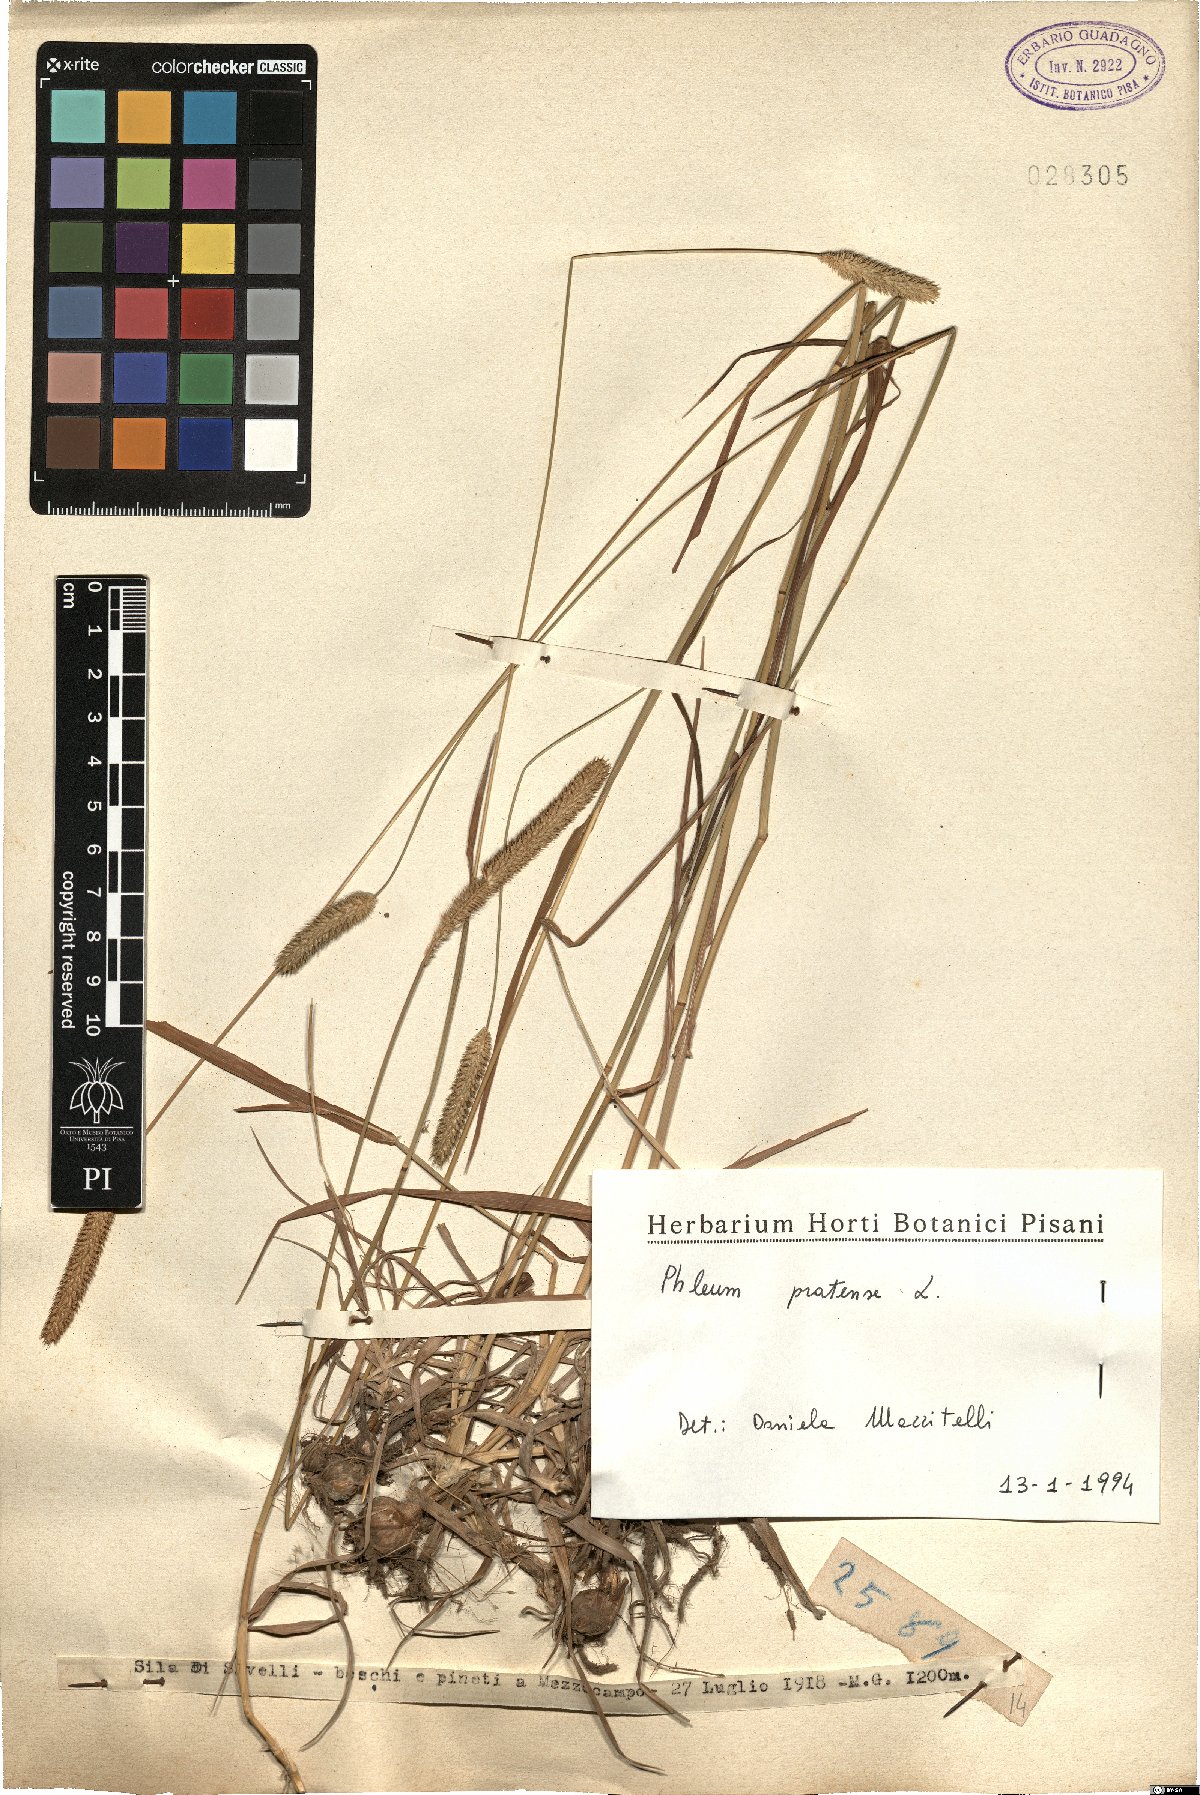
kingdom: Plantae
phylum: Tracheophyta
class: Liliopsida
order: Poales
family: Poaceae
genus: Phleum
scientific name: Phleum pratense
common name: Timothy grass
